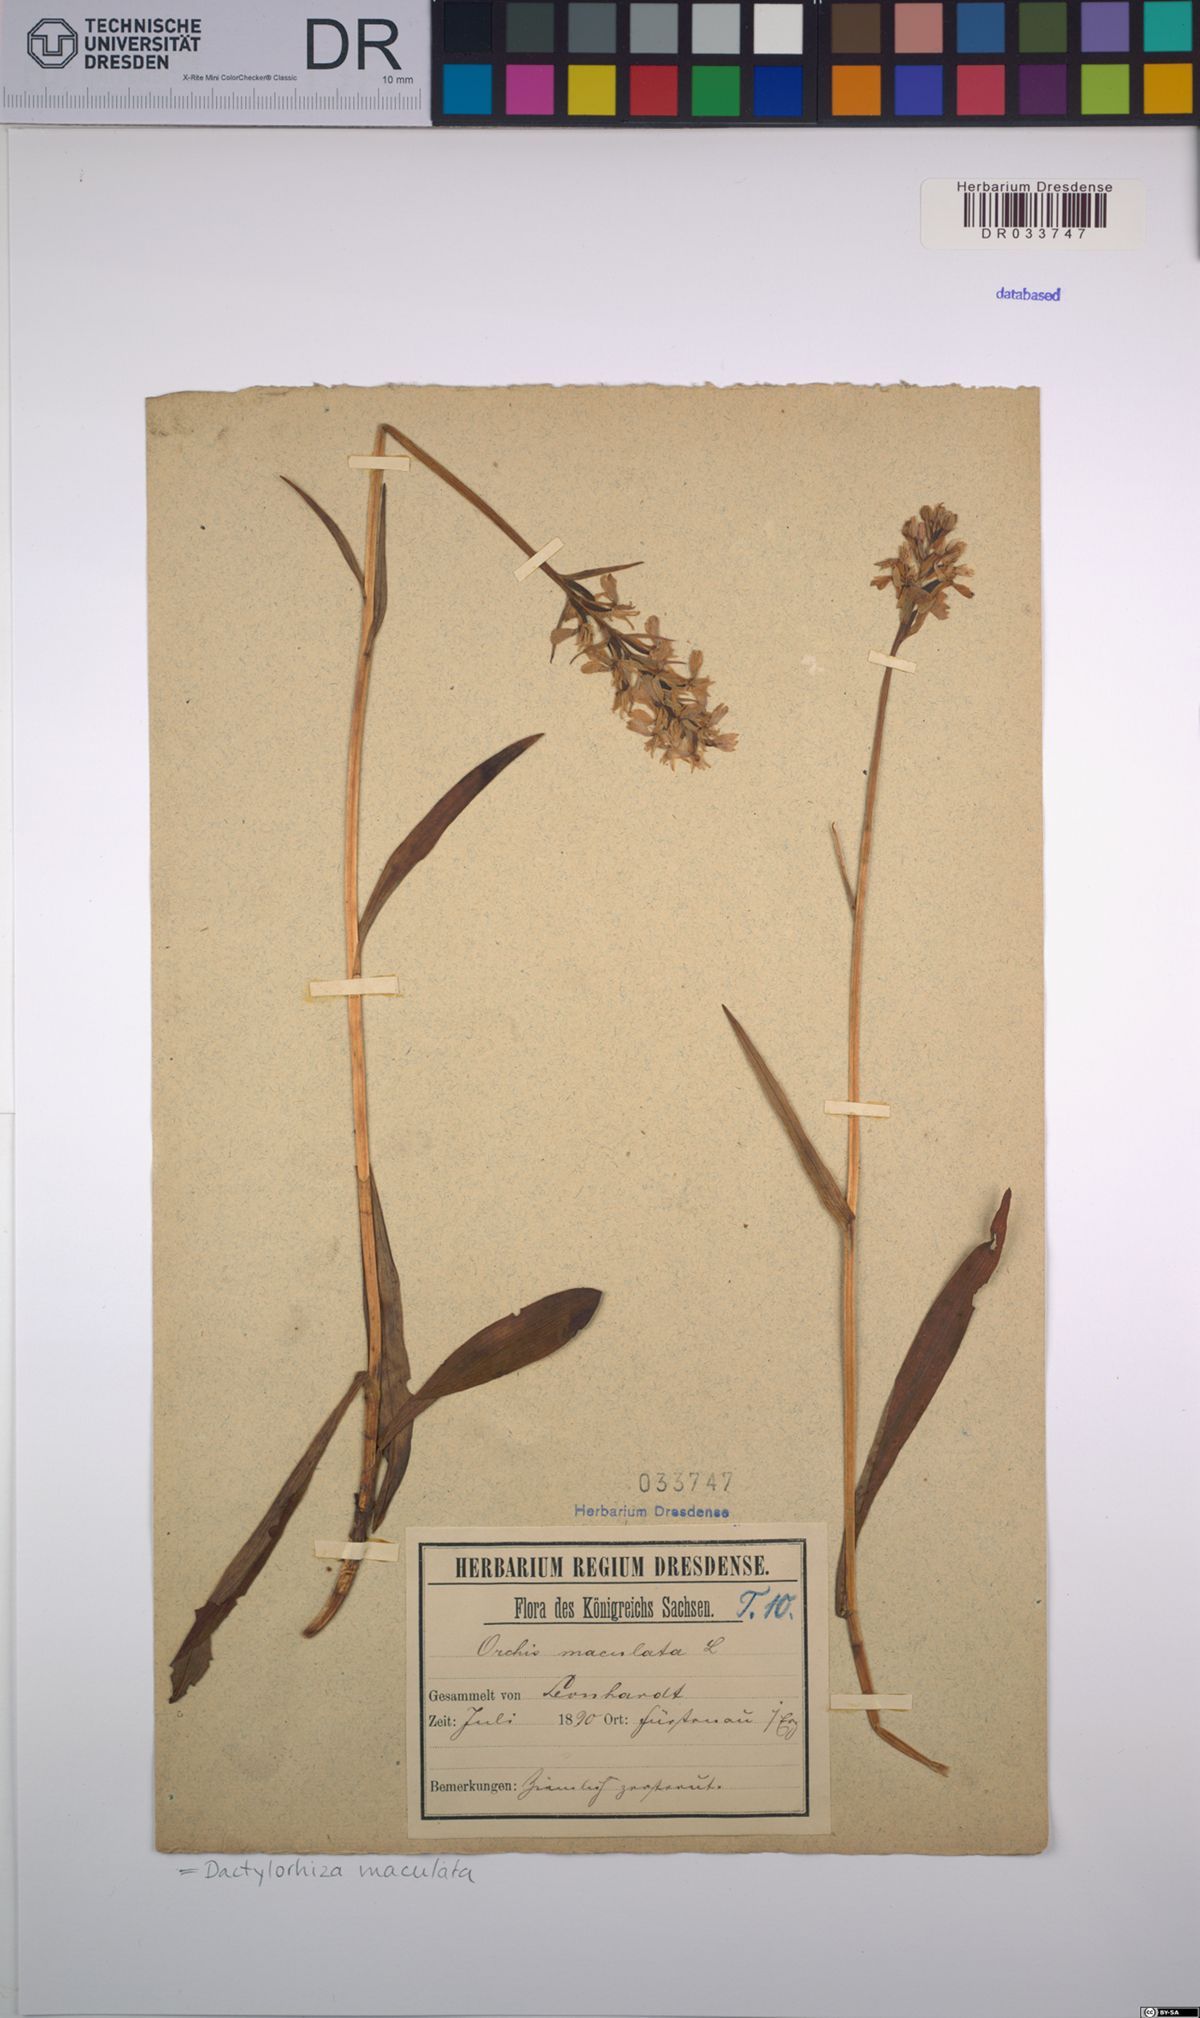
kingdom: Plantae
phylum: Tracheophyta
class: Liliopsida
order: Asparagales
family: Orchidaceae
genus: Dactylorhiza
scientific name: Dactylorhiza maculata
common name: Heath spotted-orchid
